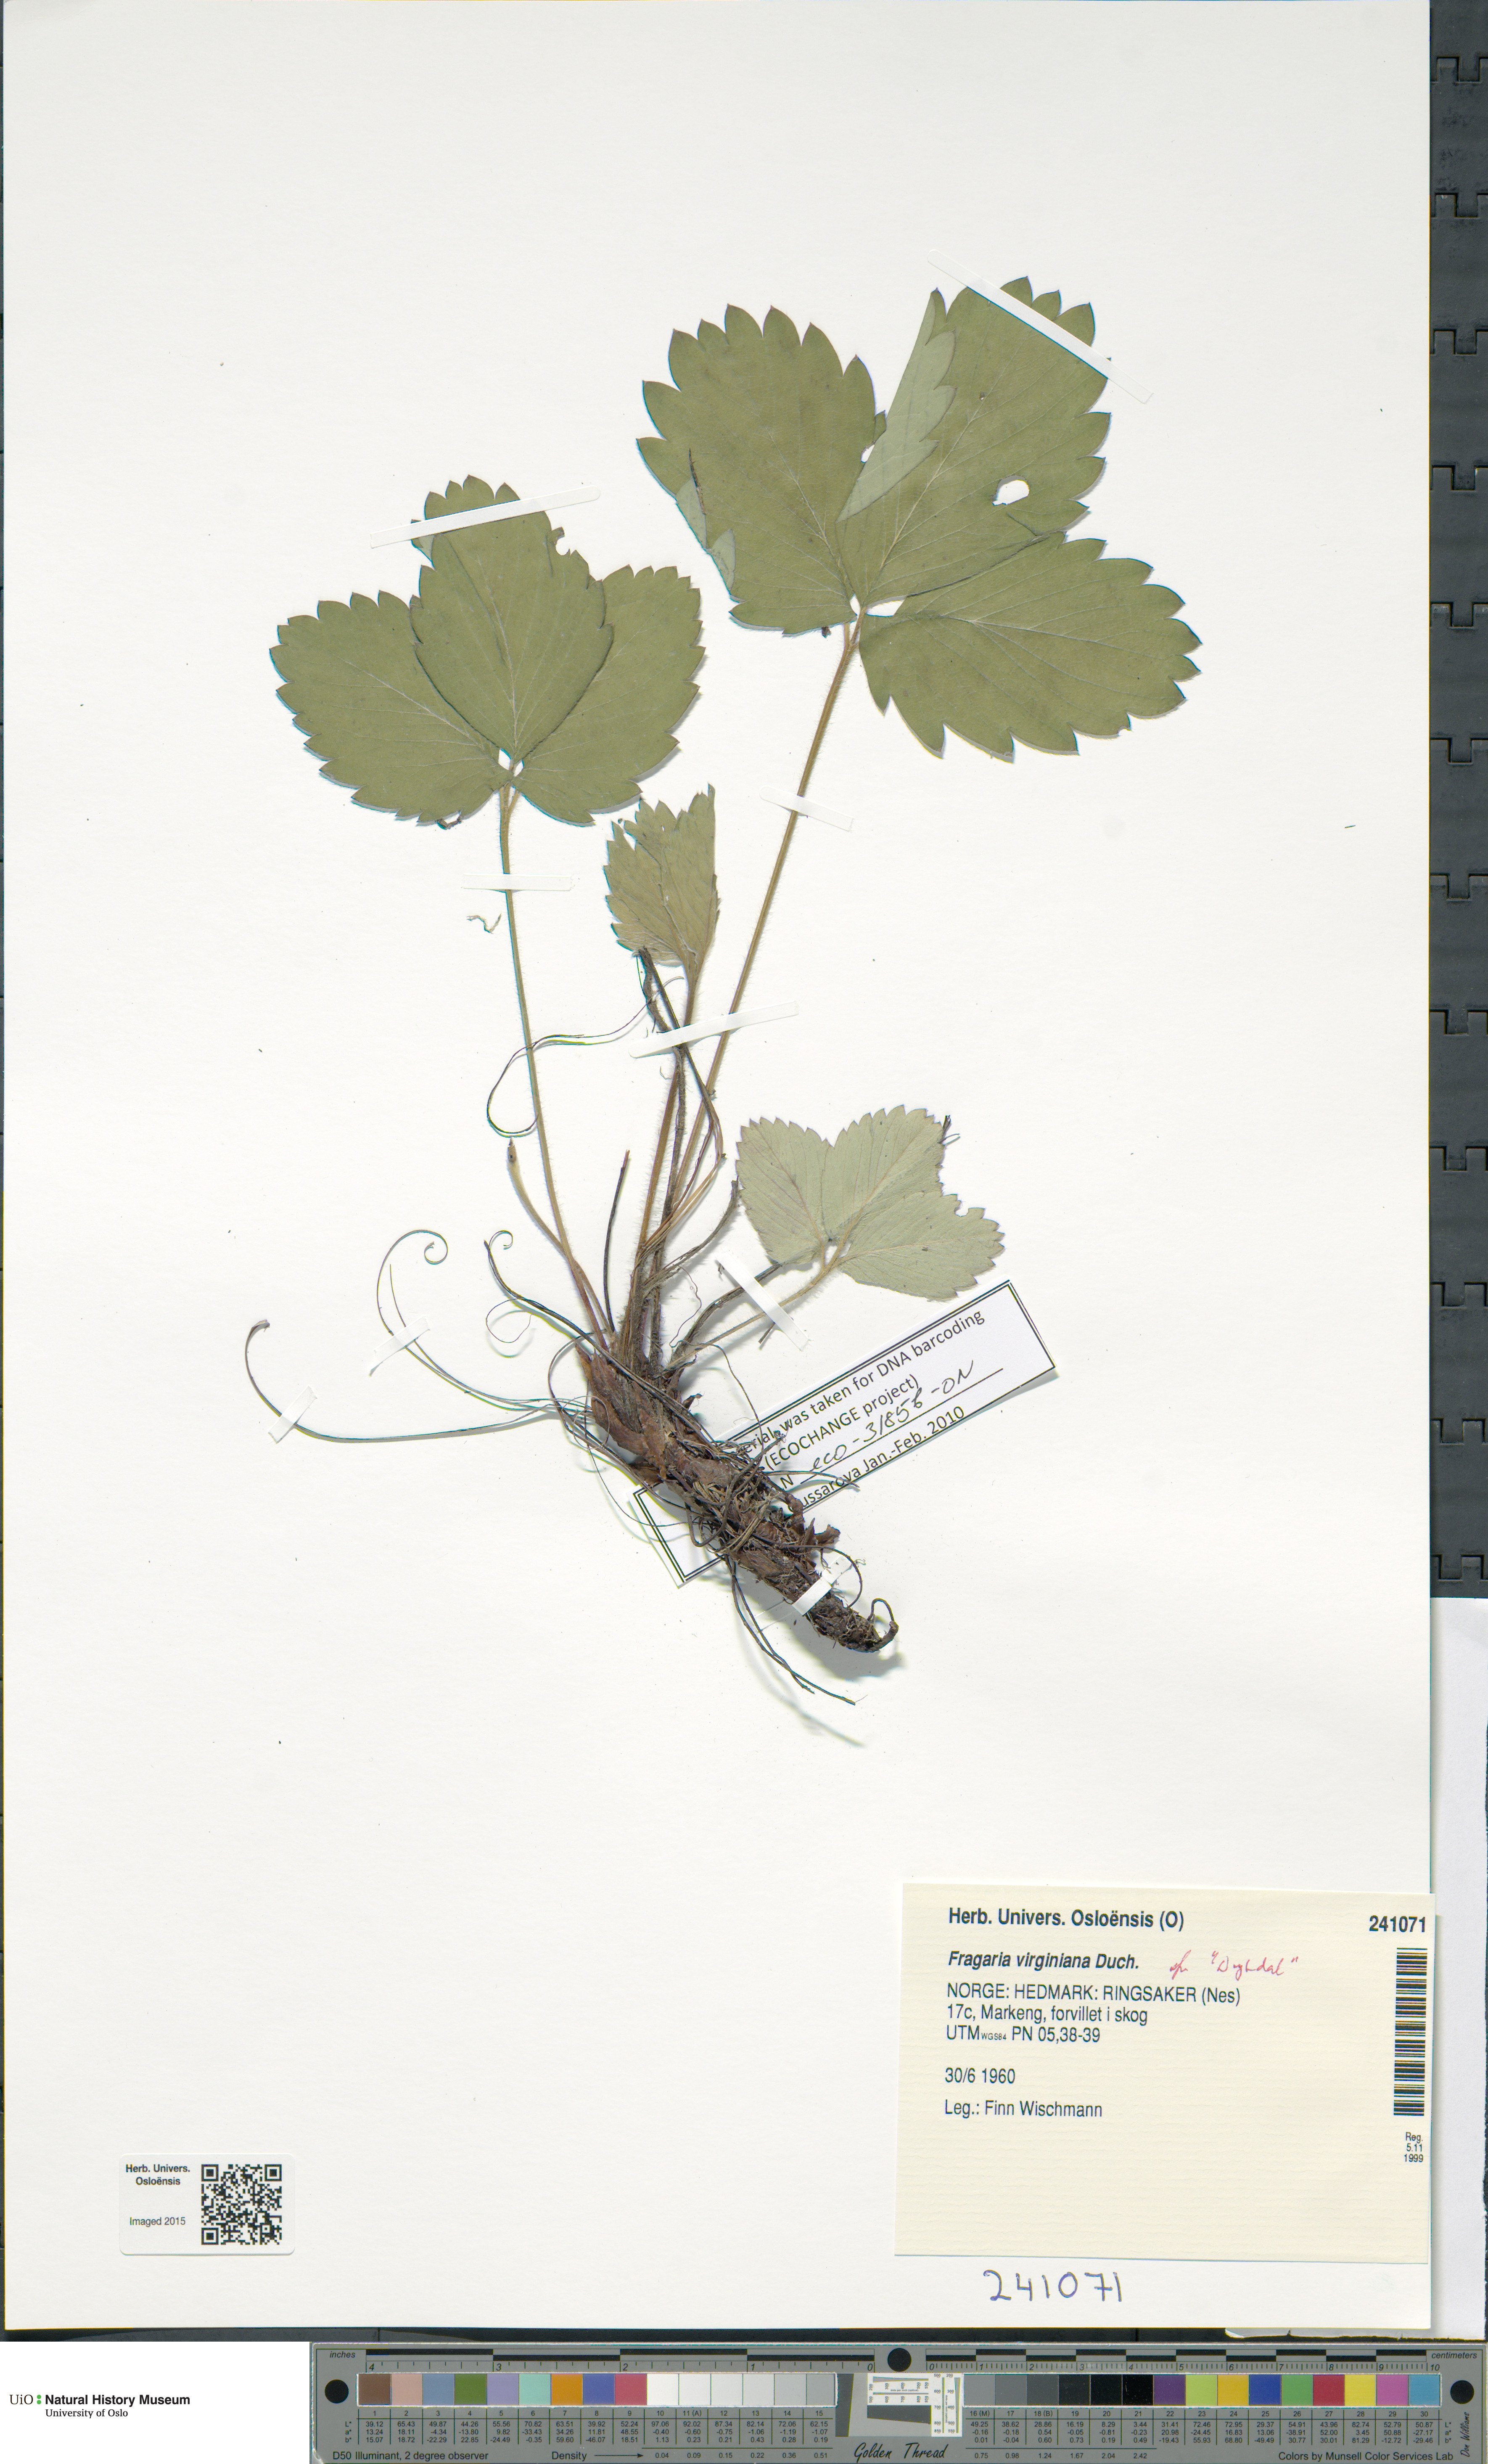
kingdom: Plantae
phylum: Tracheophyta
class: Magnoliopsida
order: Rosales
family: Rosaceae
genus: Fragaria
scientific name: Fragaria ananassa
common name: Garden strawberry
